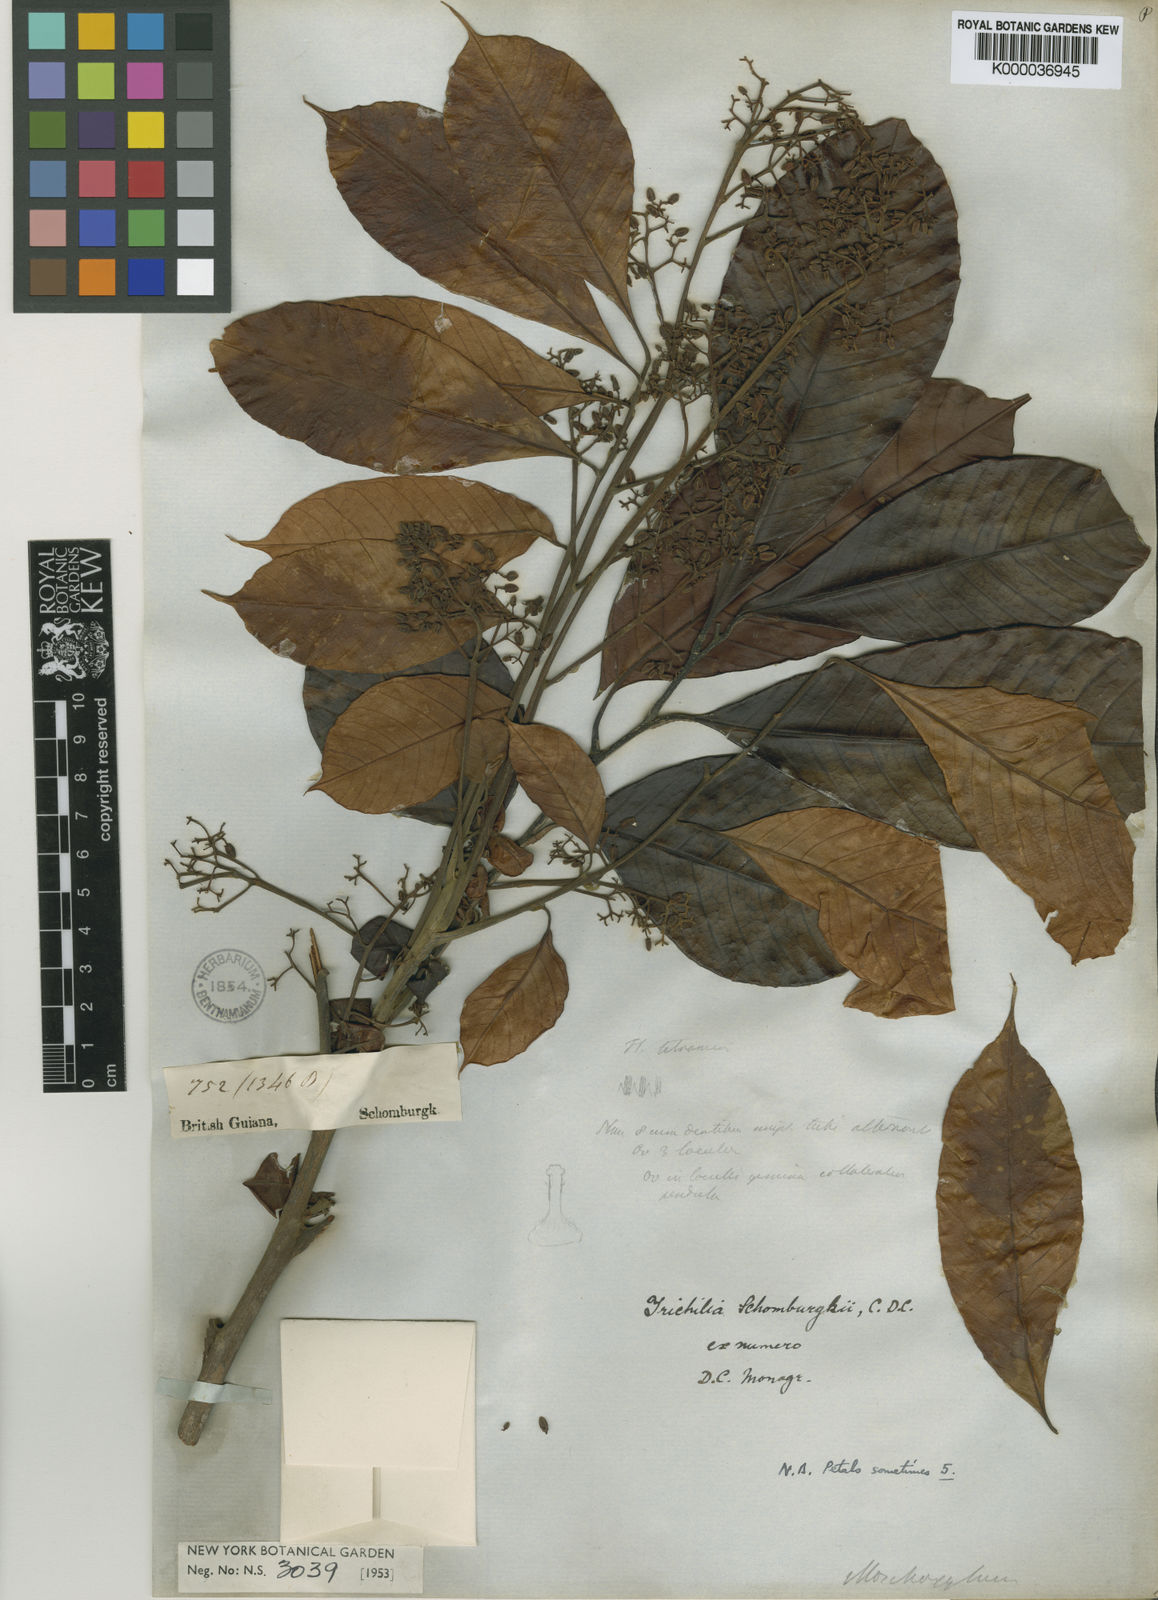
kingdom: Plantae
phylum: Tracheophyta
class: Magnoliopsida
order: Sapindales
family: Meliaceae
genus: Trichilia
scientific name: Trichilia schomburgkii
